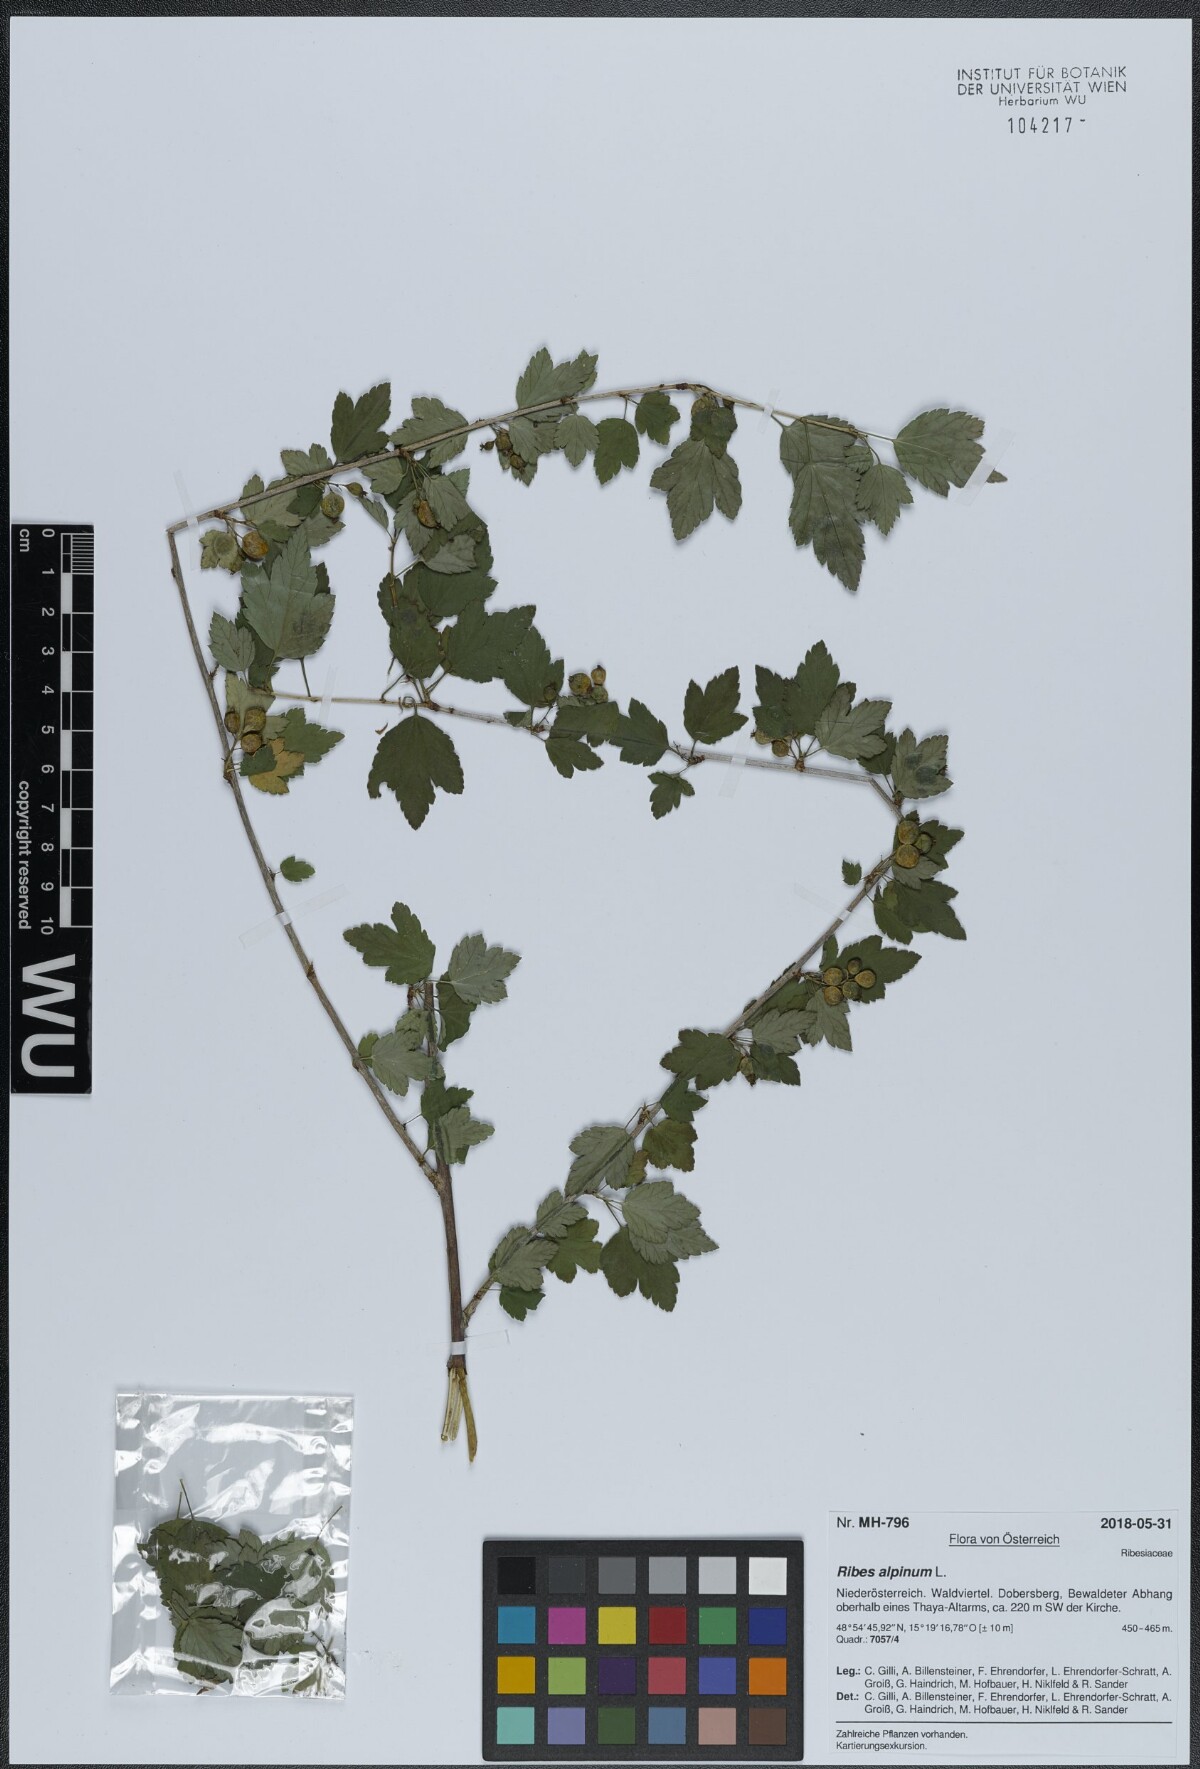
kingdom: Plantae
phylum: Tracheophyta
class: Magnoliopsida
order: Saxifragales
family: Grossulariaceae
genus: Ribes
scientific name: Ribes alpinum
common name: Alpine currant
